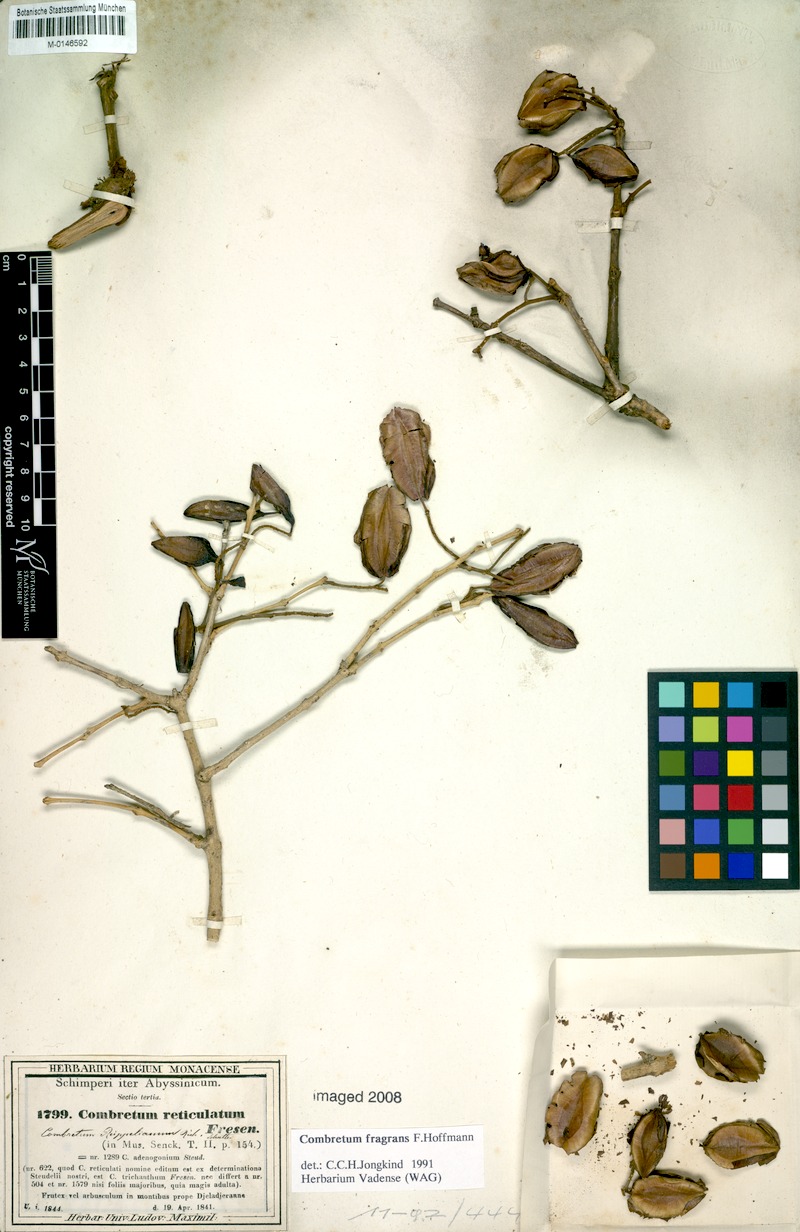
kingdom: Plantae
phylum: Tracheophyta
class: Magnoliopsida
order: Myrtales
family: Combretaceae
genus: Combretum
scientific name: Combretum adenogonium
